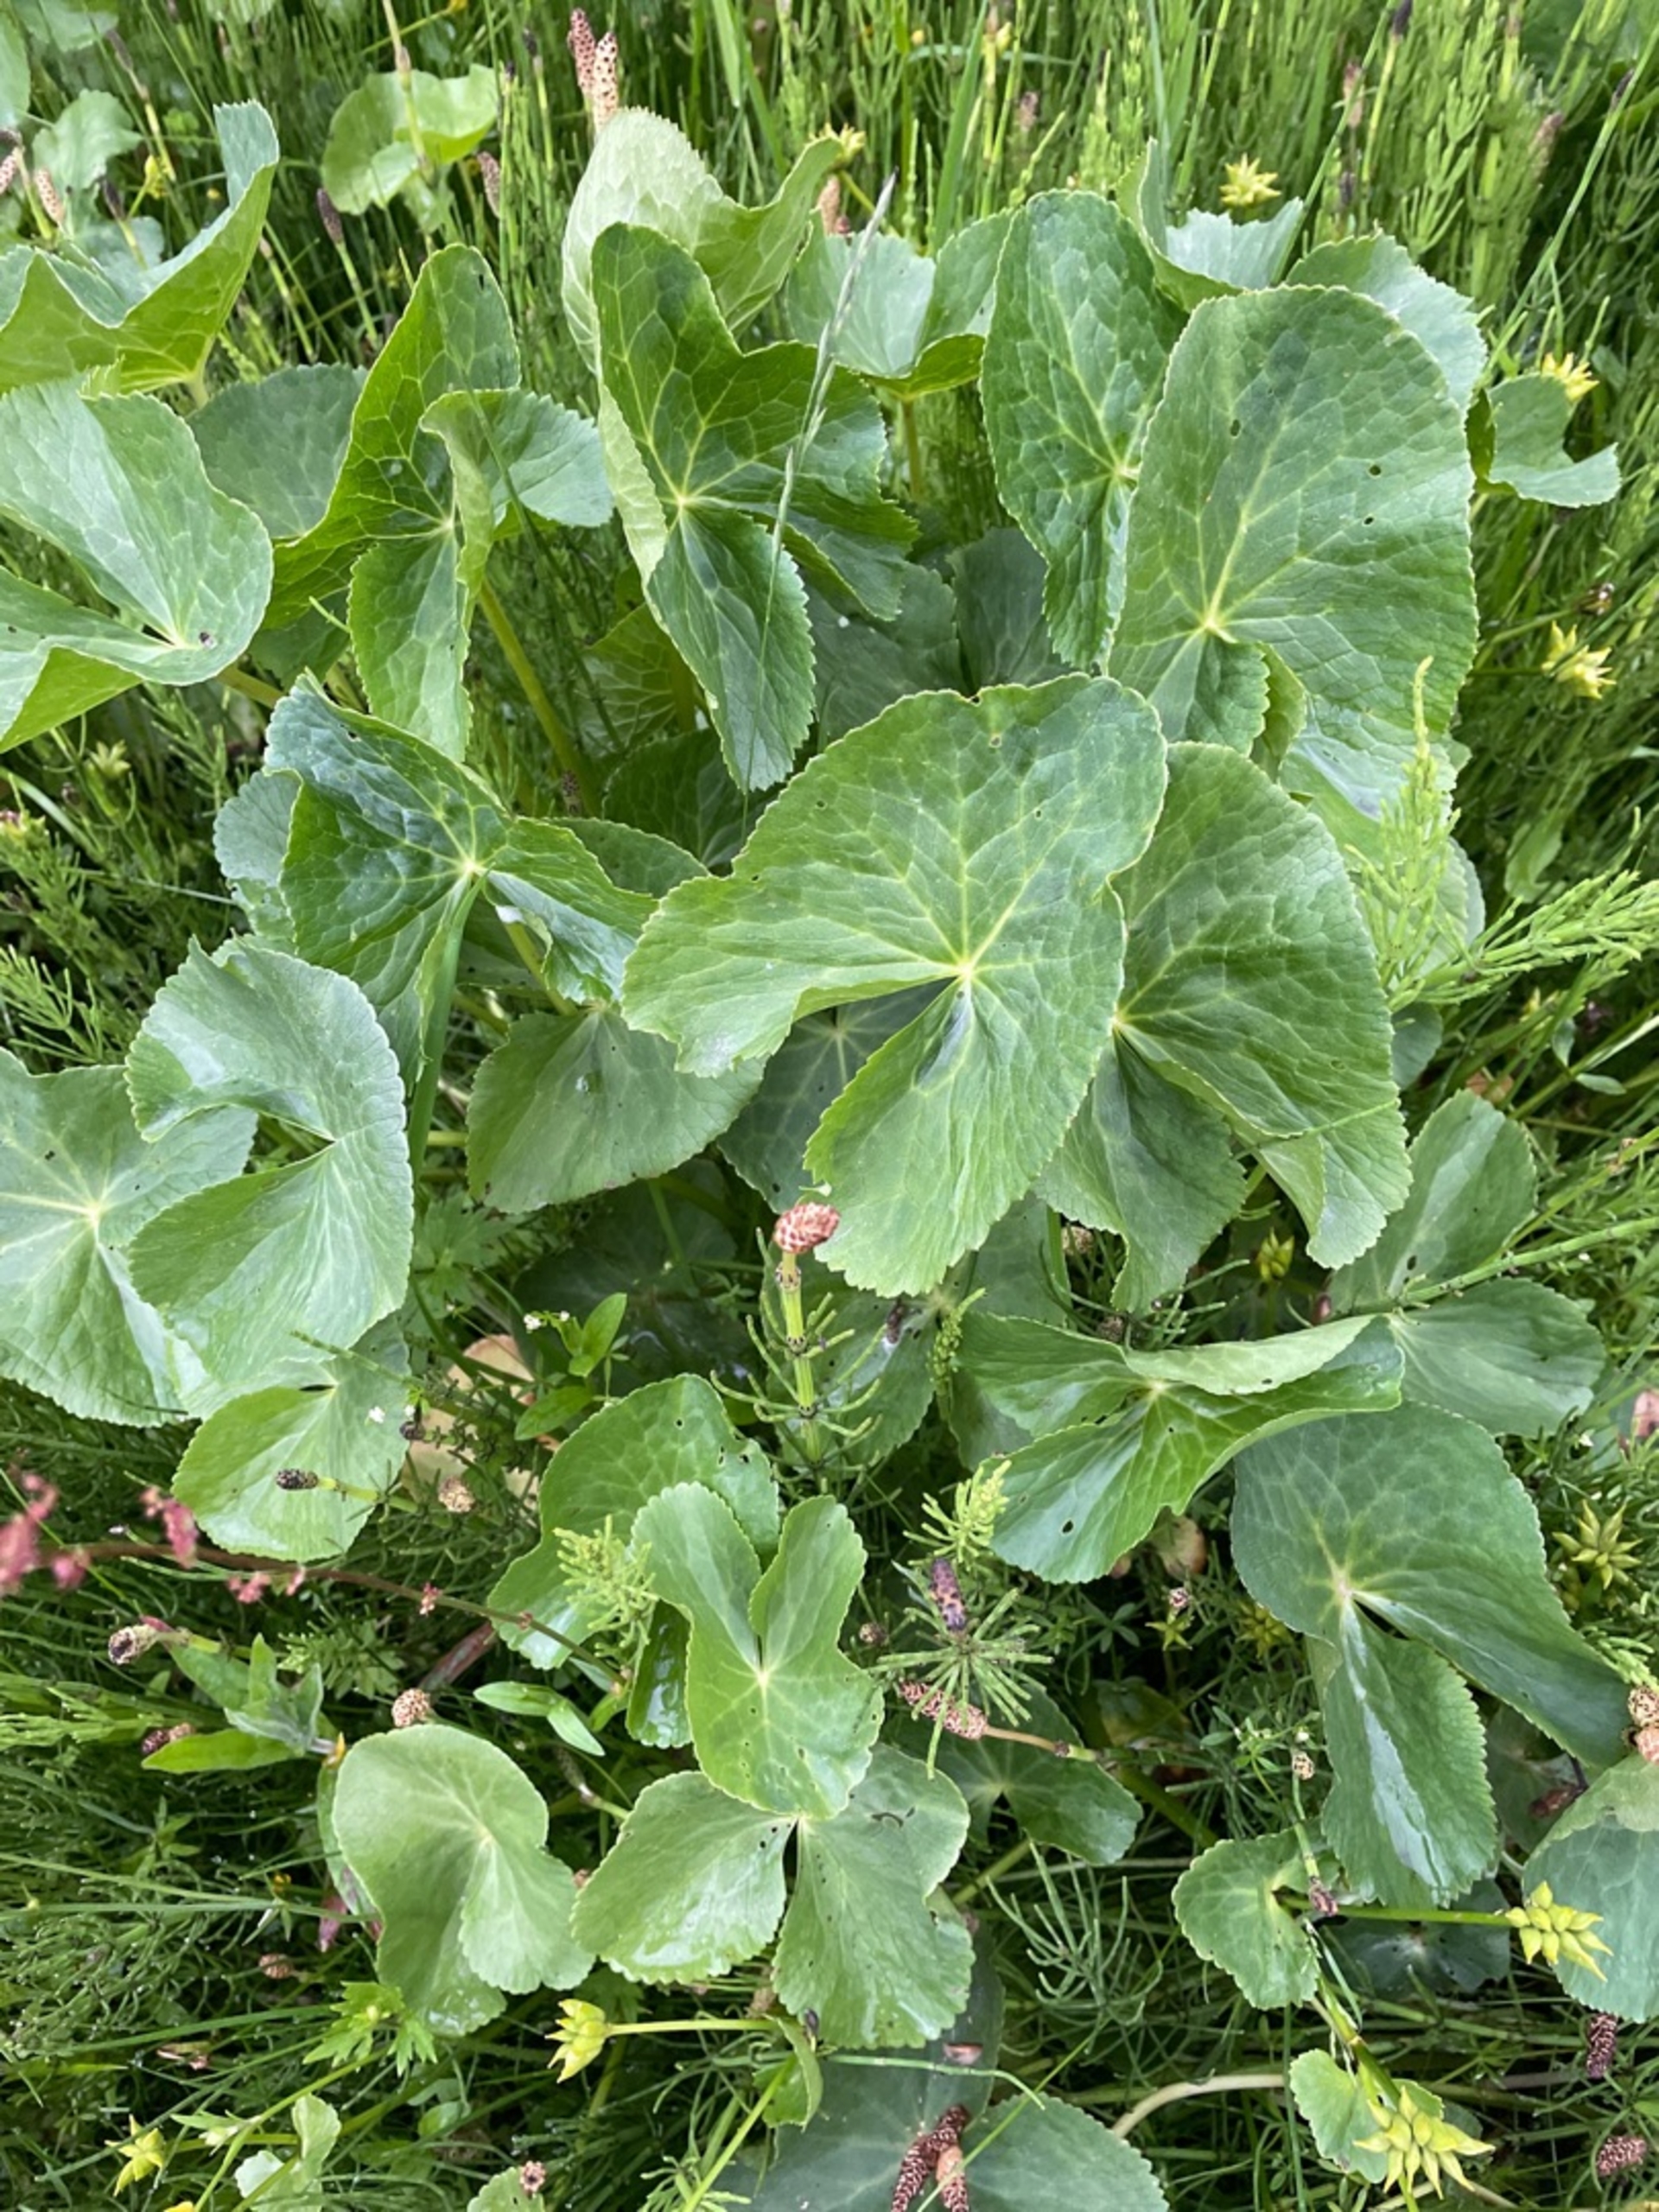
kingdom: Plantae
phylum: Tracheophyta
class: Magnoliopsida
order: Ranunculales
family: Ranunculaceae
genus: Caltha
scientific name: Caltha palustris
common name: Eng-kabbeleje
